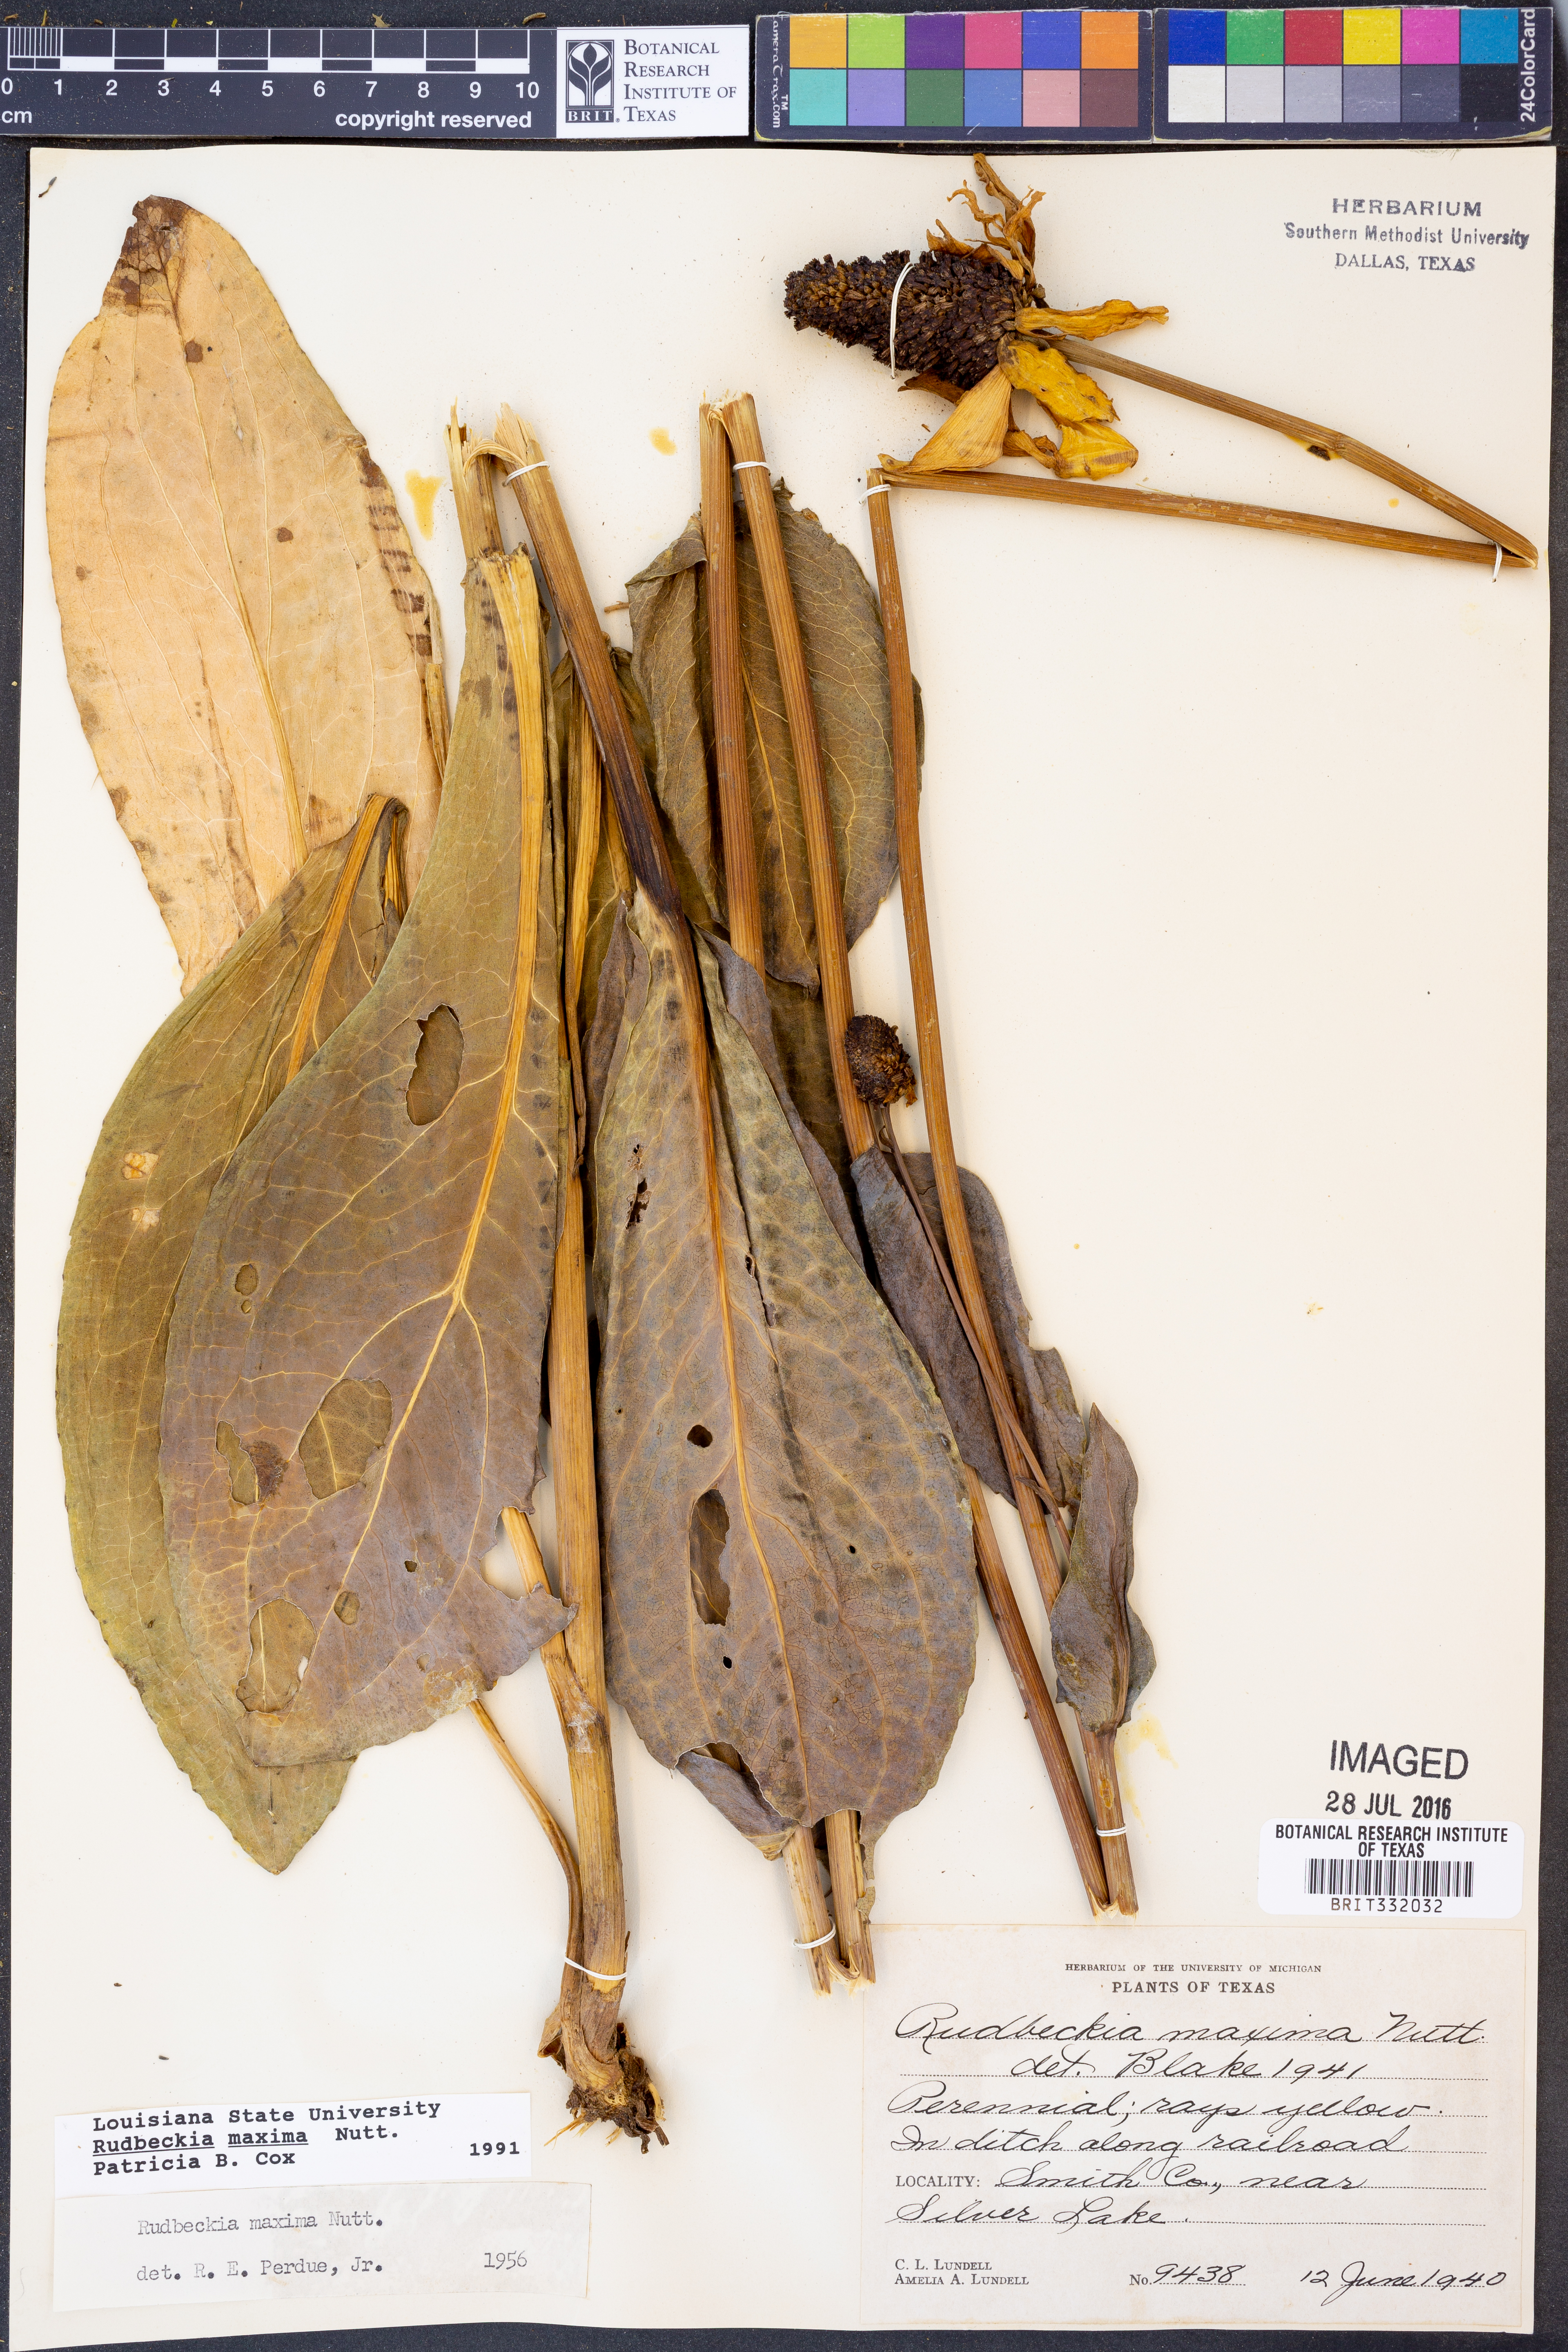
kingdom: Plantae
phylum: Tracheophyta
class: Magnoliopsida
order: Asterales
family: Asteraceae
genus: Rudbeckia
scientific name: Rudbeckia maxima
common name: Cabbage coneflower
